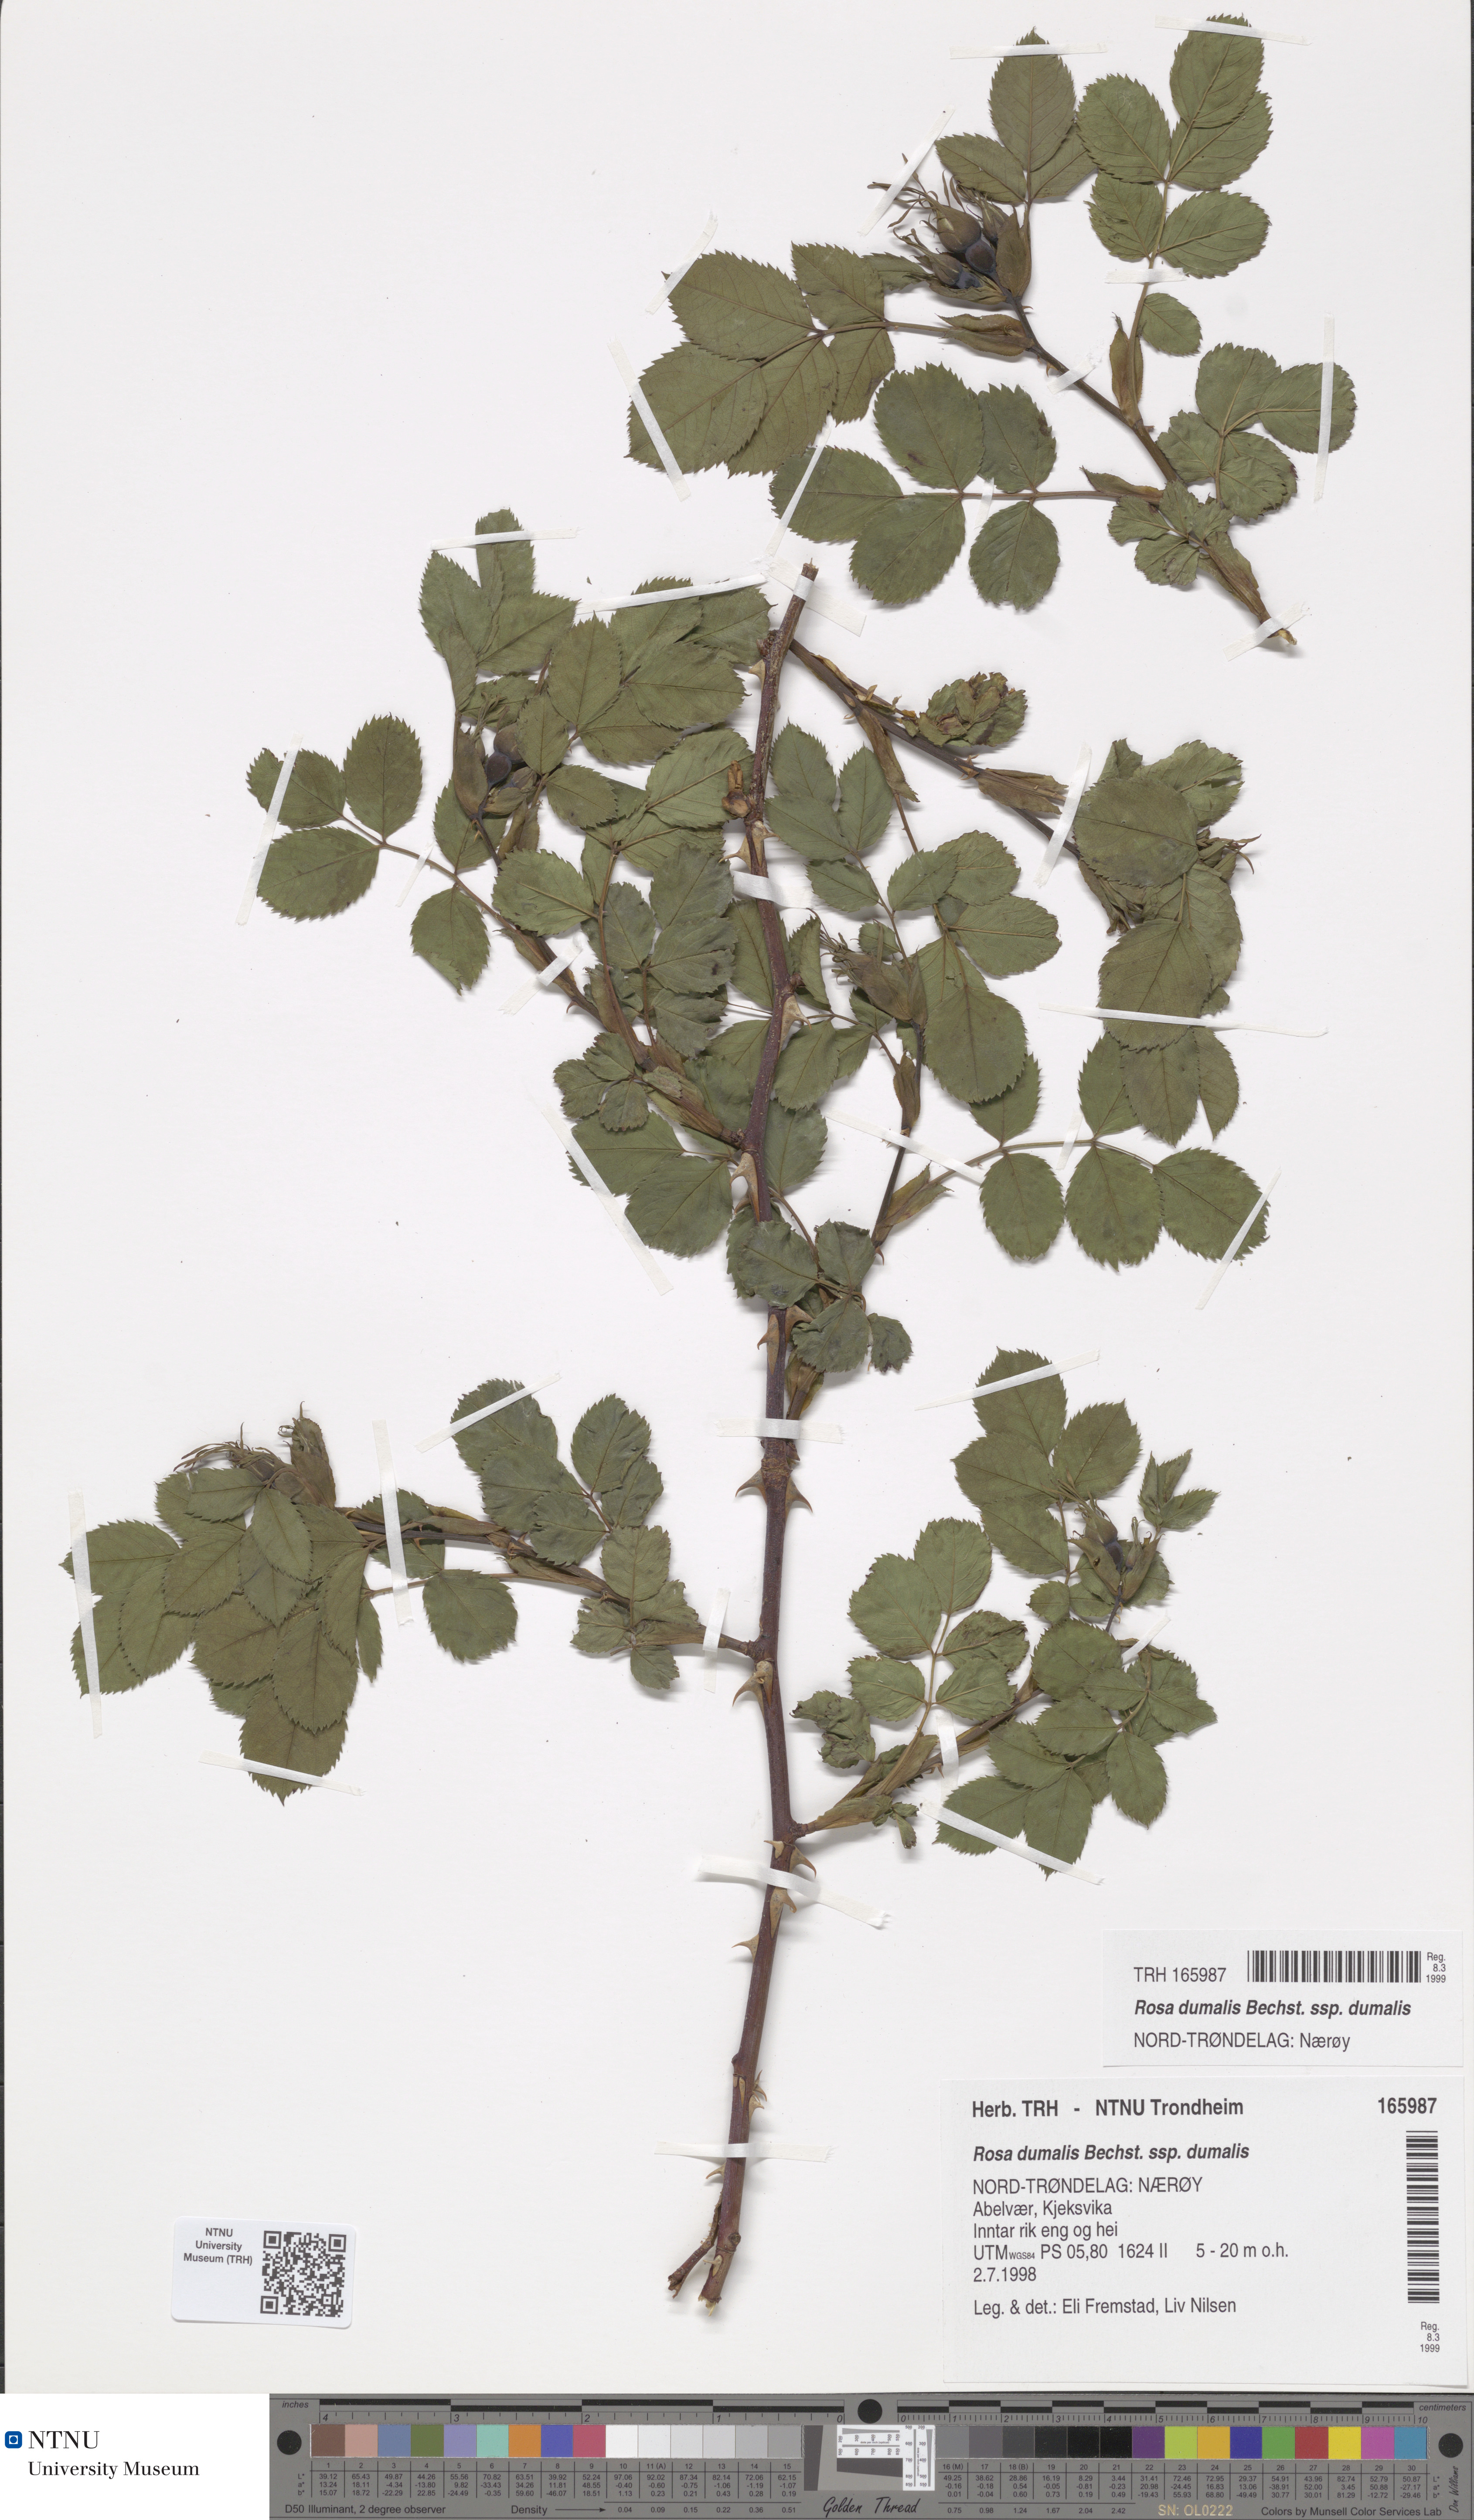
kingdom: Plantae
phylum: Tracheophyta
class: Magnoliopsida
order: Rosales
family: Rosaceae
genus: Rosa
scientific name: Rosa dumalis
